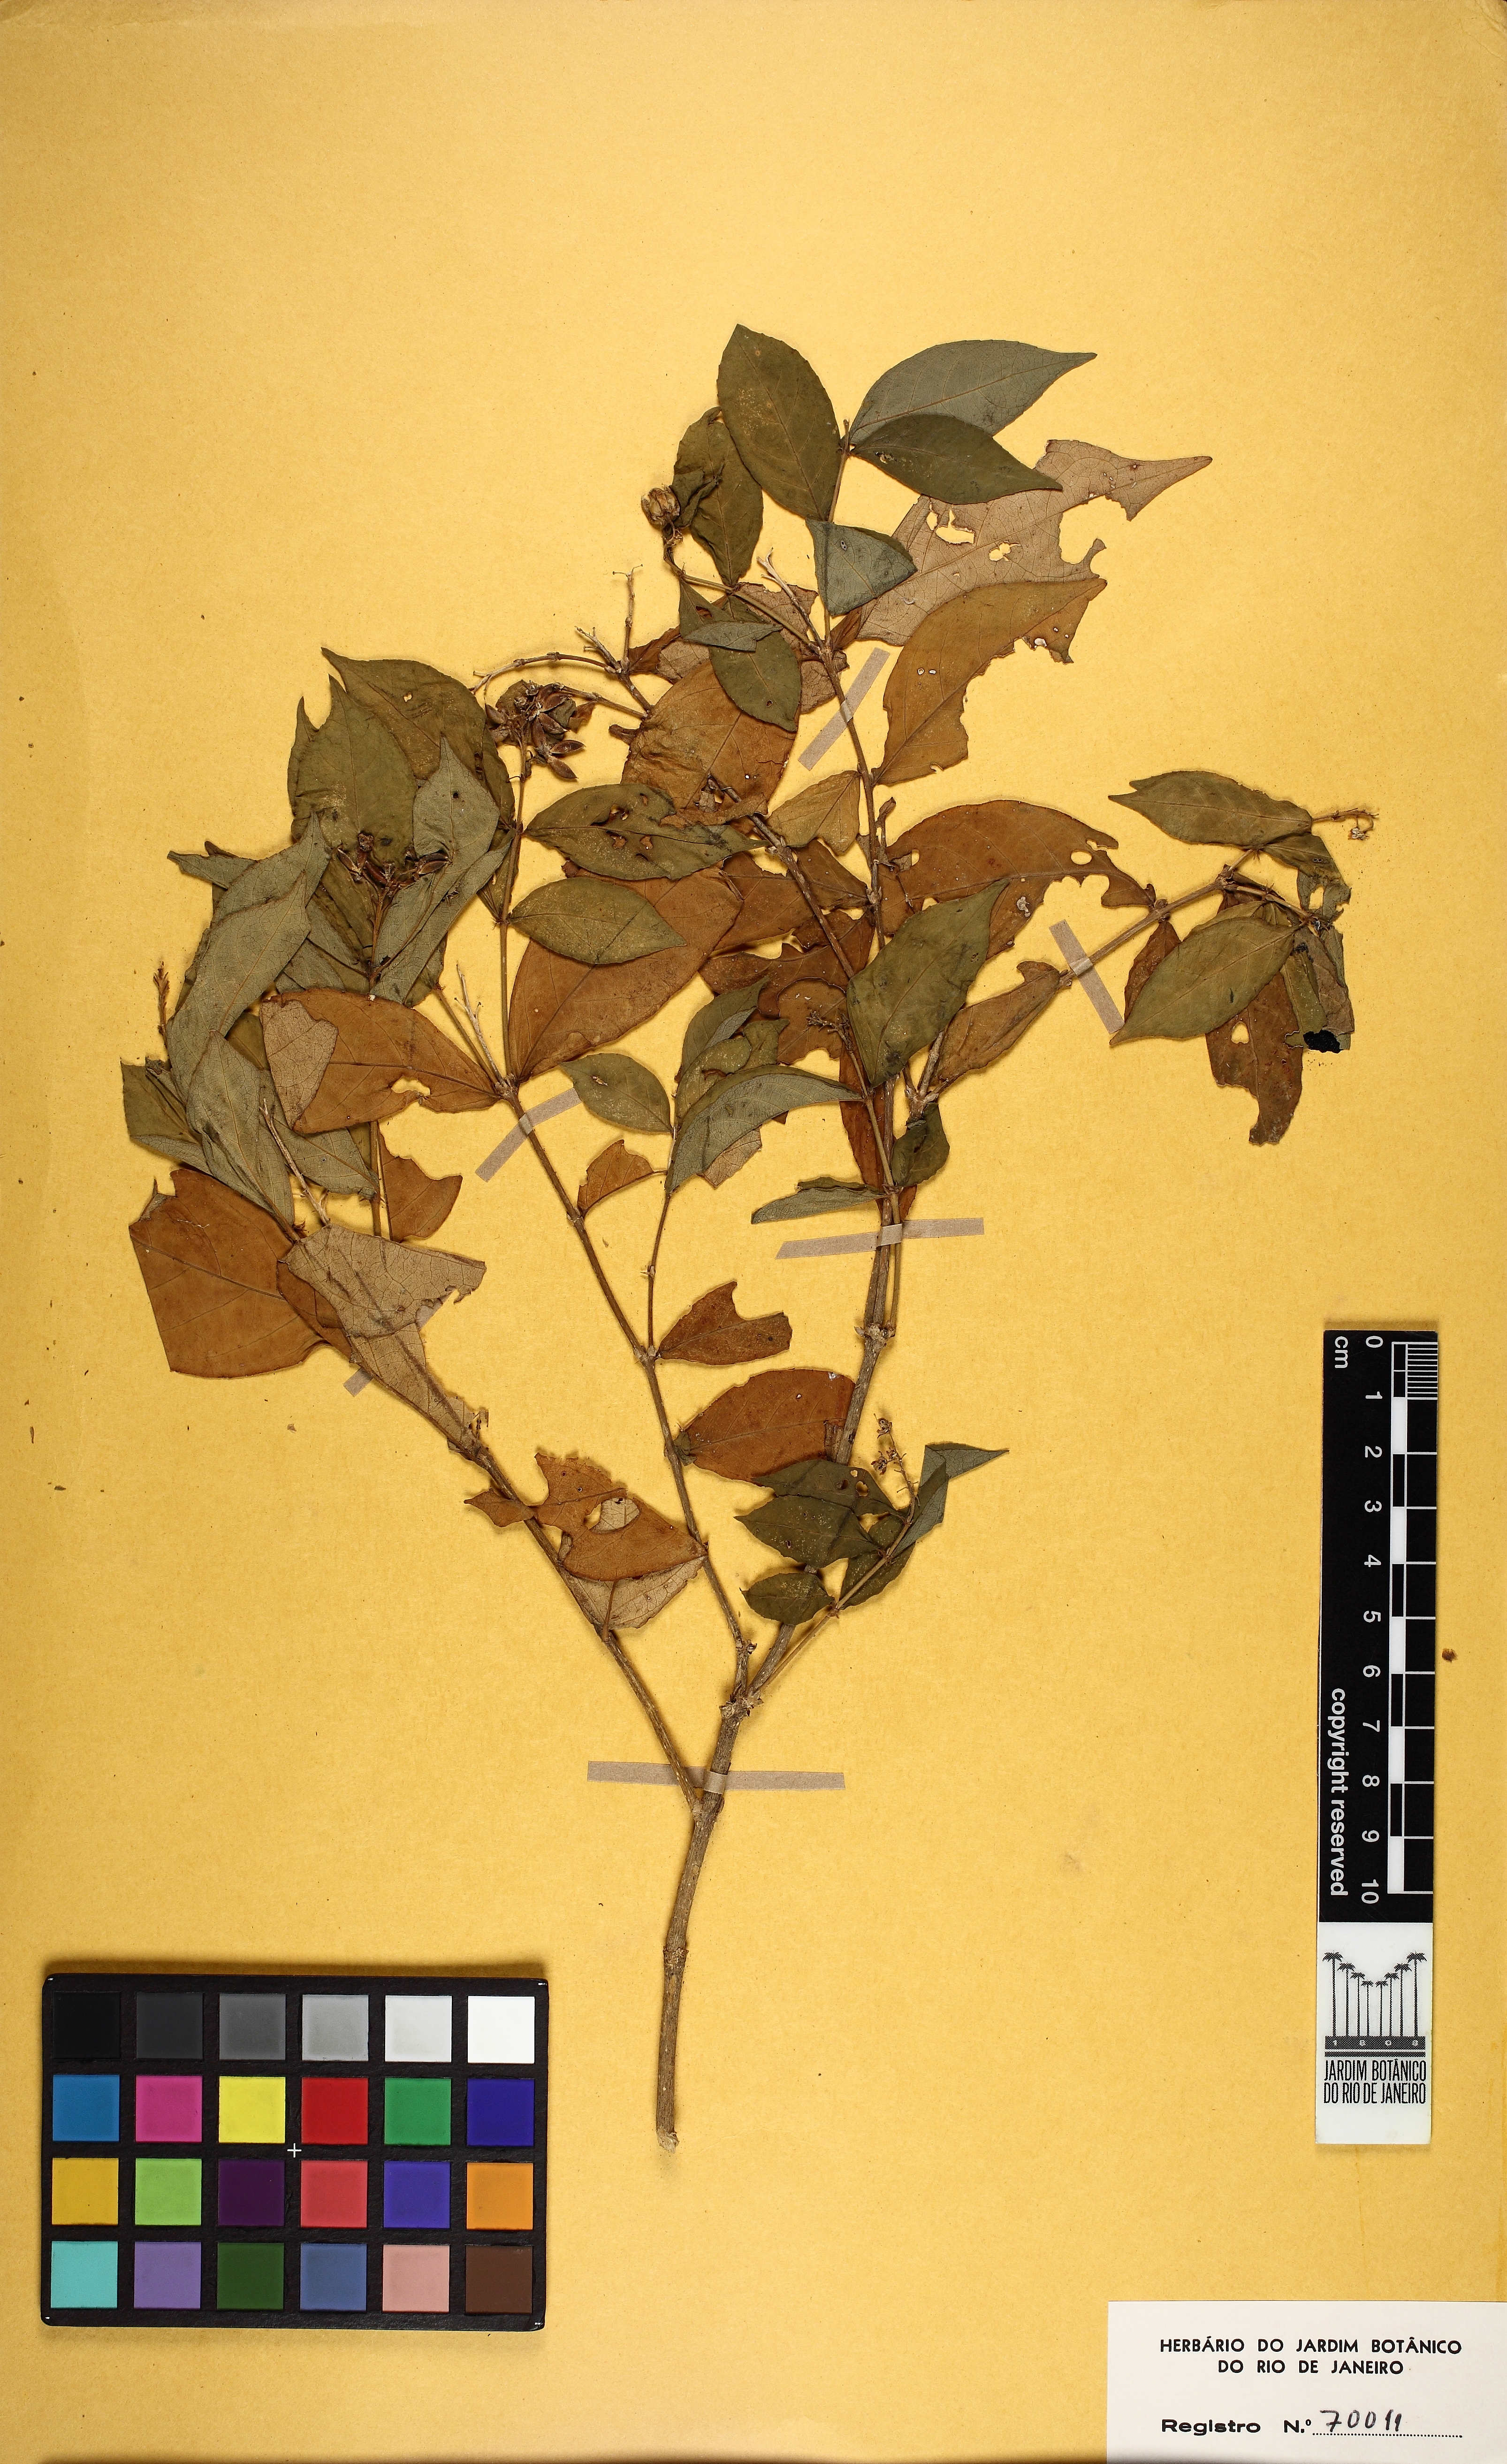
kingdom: Plantae
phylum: Tracheophyta
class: Magnoliopsida
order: Malpighiales
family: Violaceae
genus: Pombalia
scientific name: Pombalia atropurpurea
